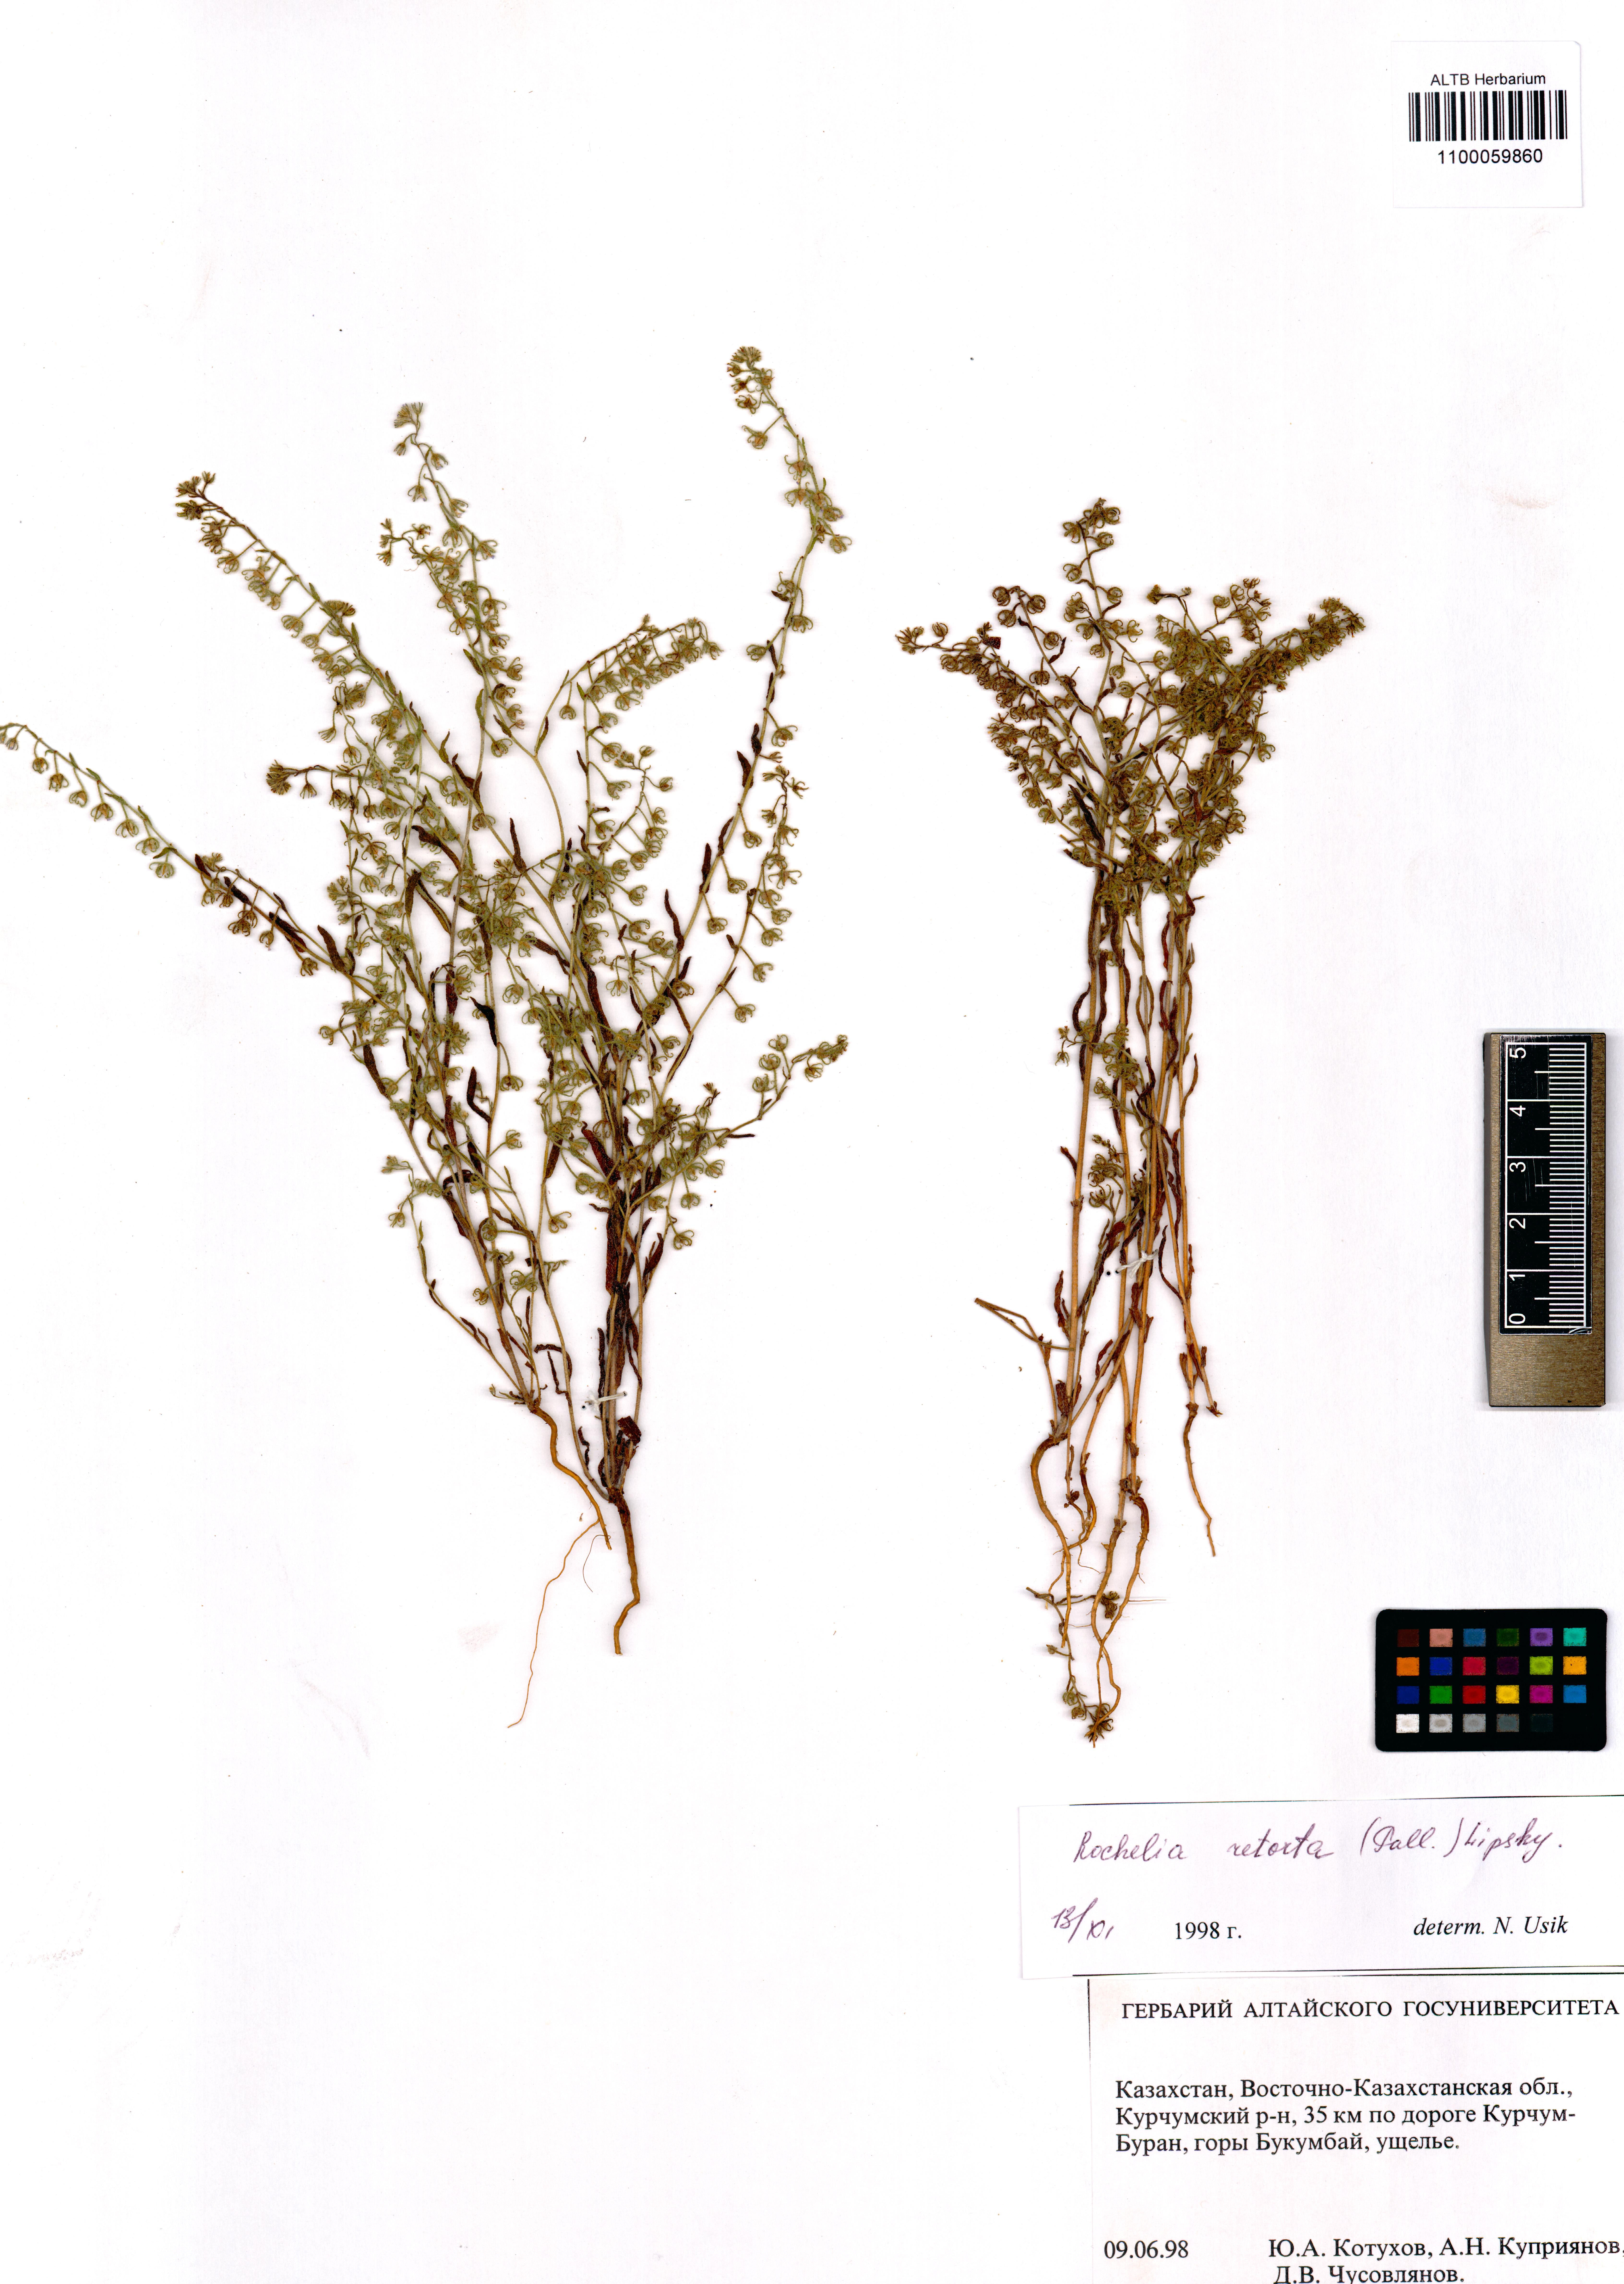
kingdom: Plantae
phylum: Tracheophyta
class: Magnoliopsida
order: Boraginales
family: Boraginaceae
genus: Rochelia
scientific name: Rochelia retorta
